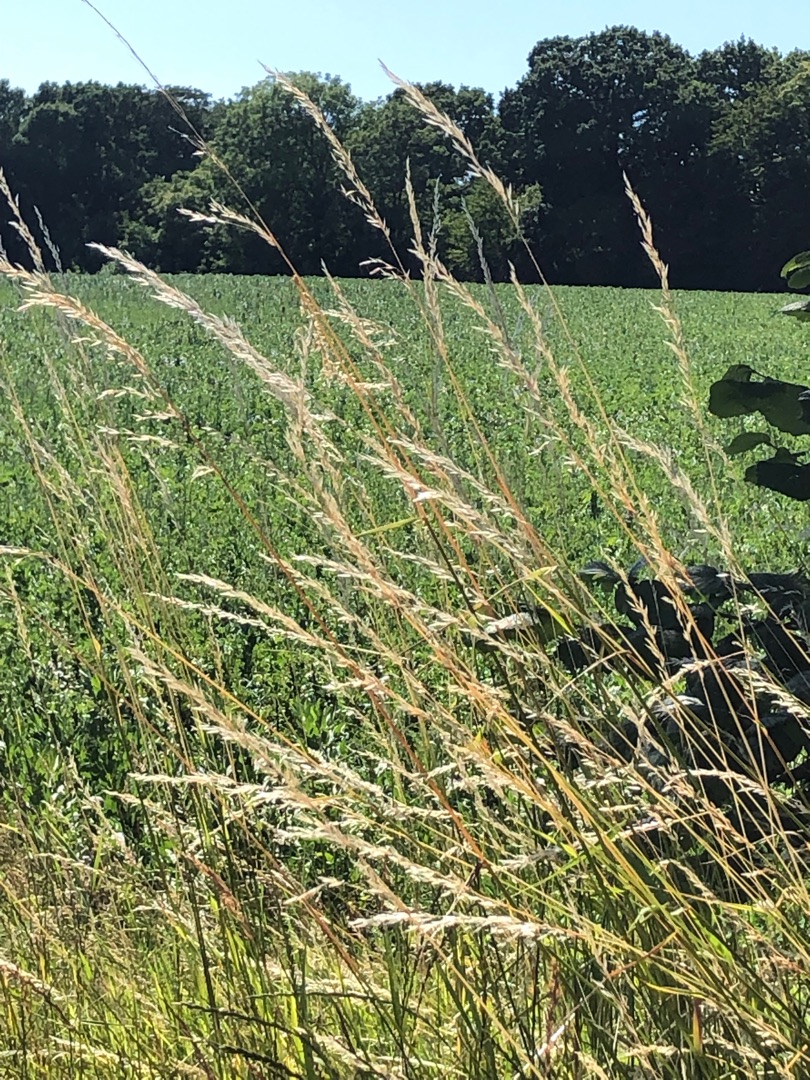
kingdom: Plantae
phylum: Tracheophyta
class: Liliopsida
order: Poales
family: Poaceae
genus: Arrhenatherum
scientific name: Arrhenatherum elatius
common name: Draphavre
